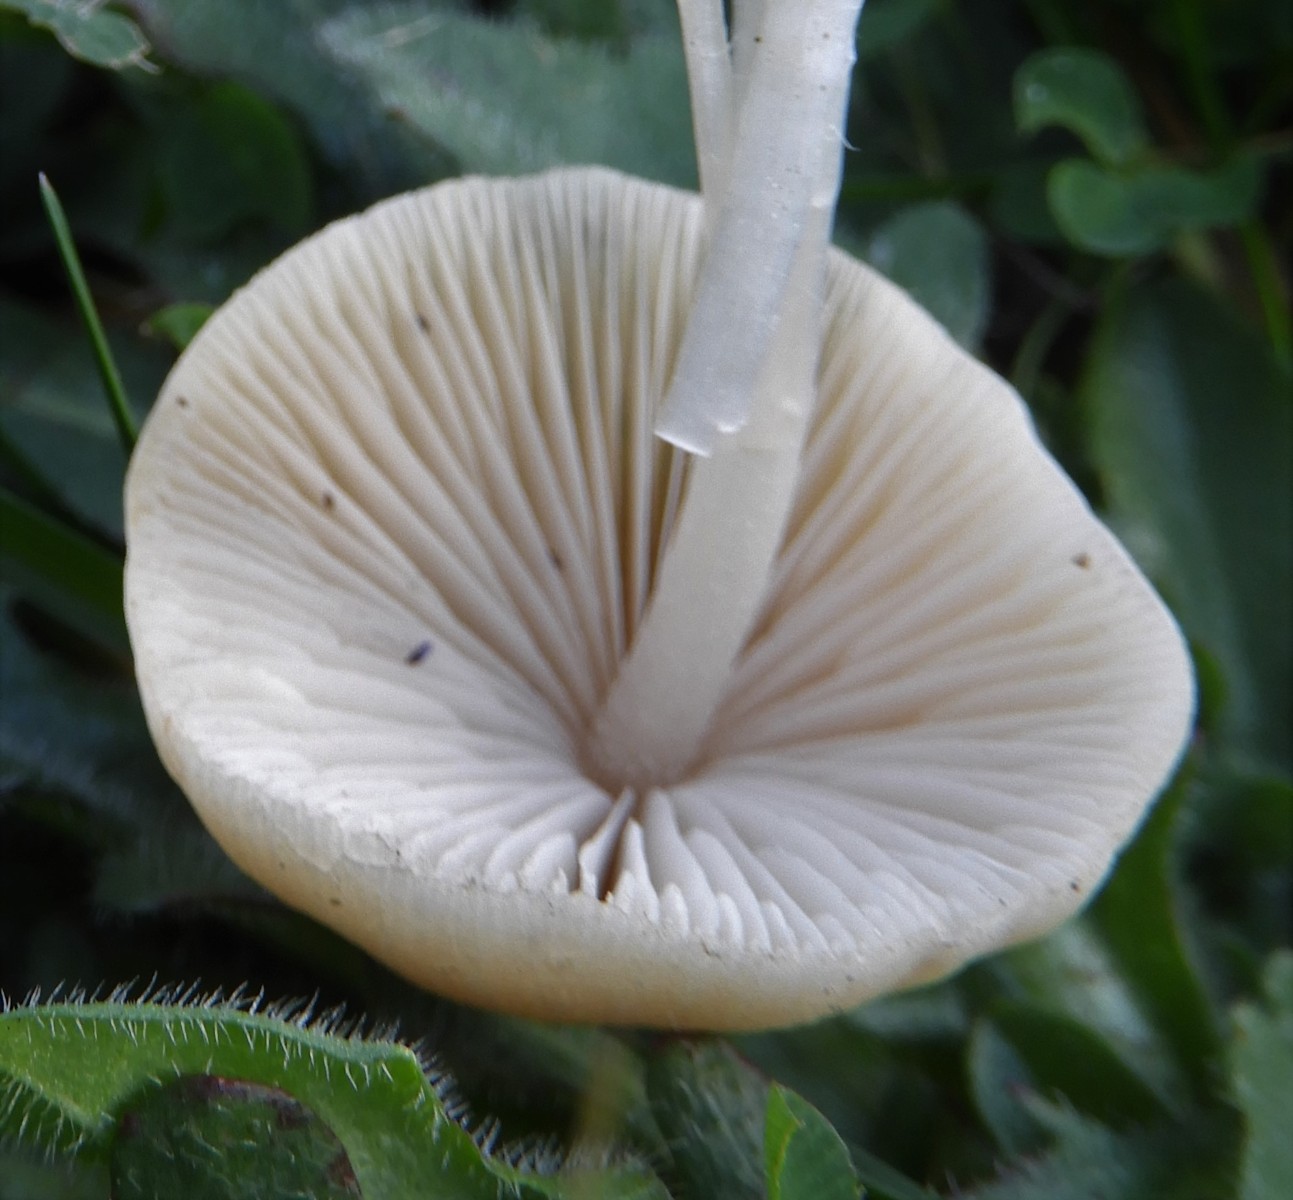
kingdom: Fungi
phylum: Basidiomycota
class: Agaricomycetes
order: Agaricales
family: Psathyrellaceae
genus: Britzelmayria
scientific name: Britzelmayria multipedata
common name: knippe-mørkhat
